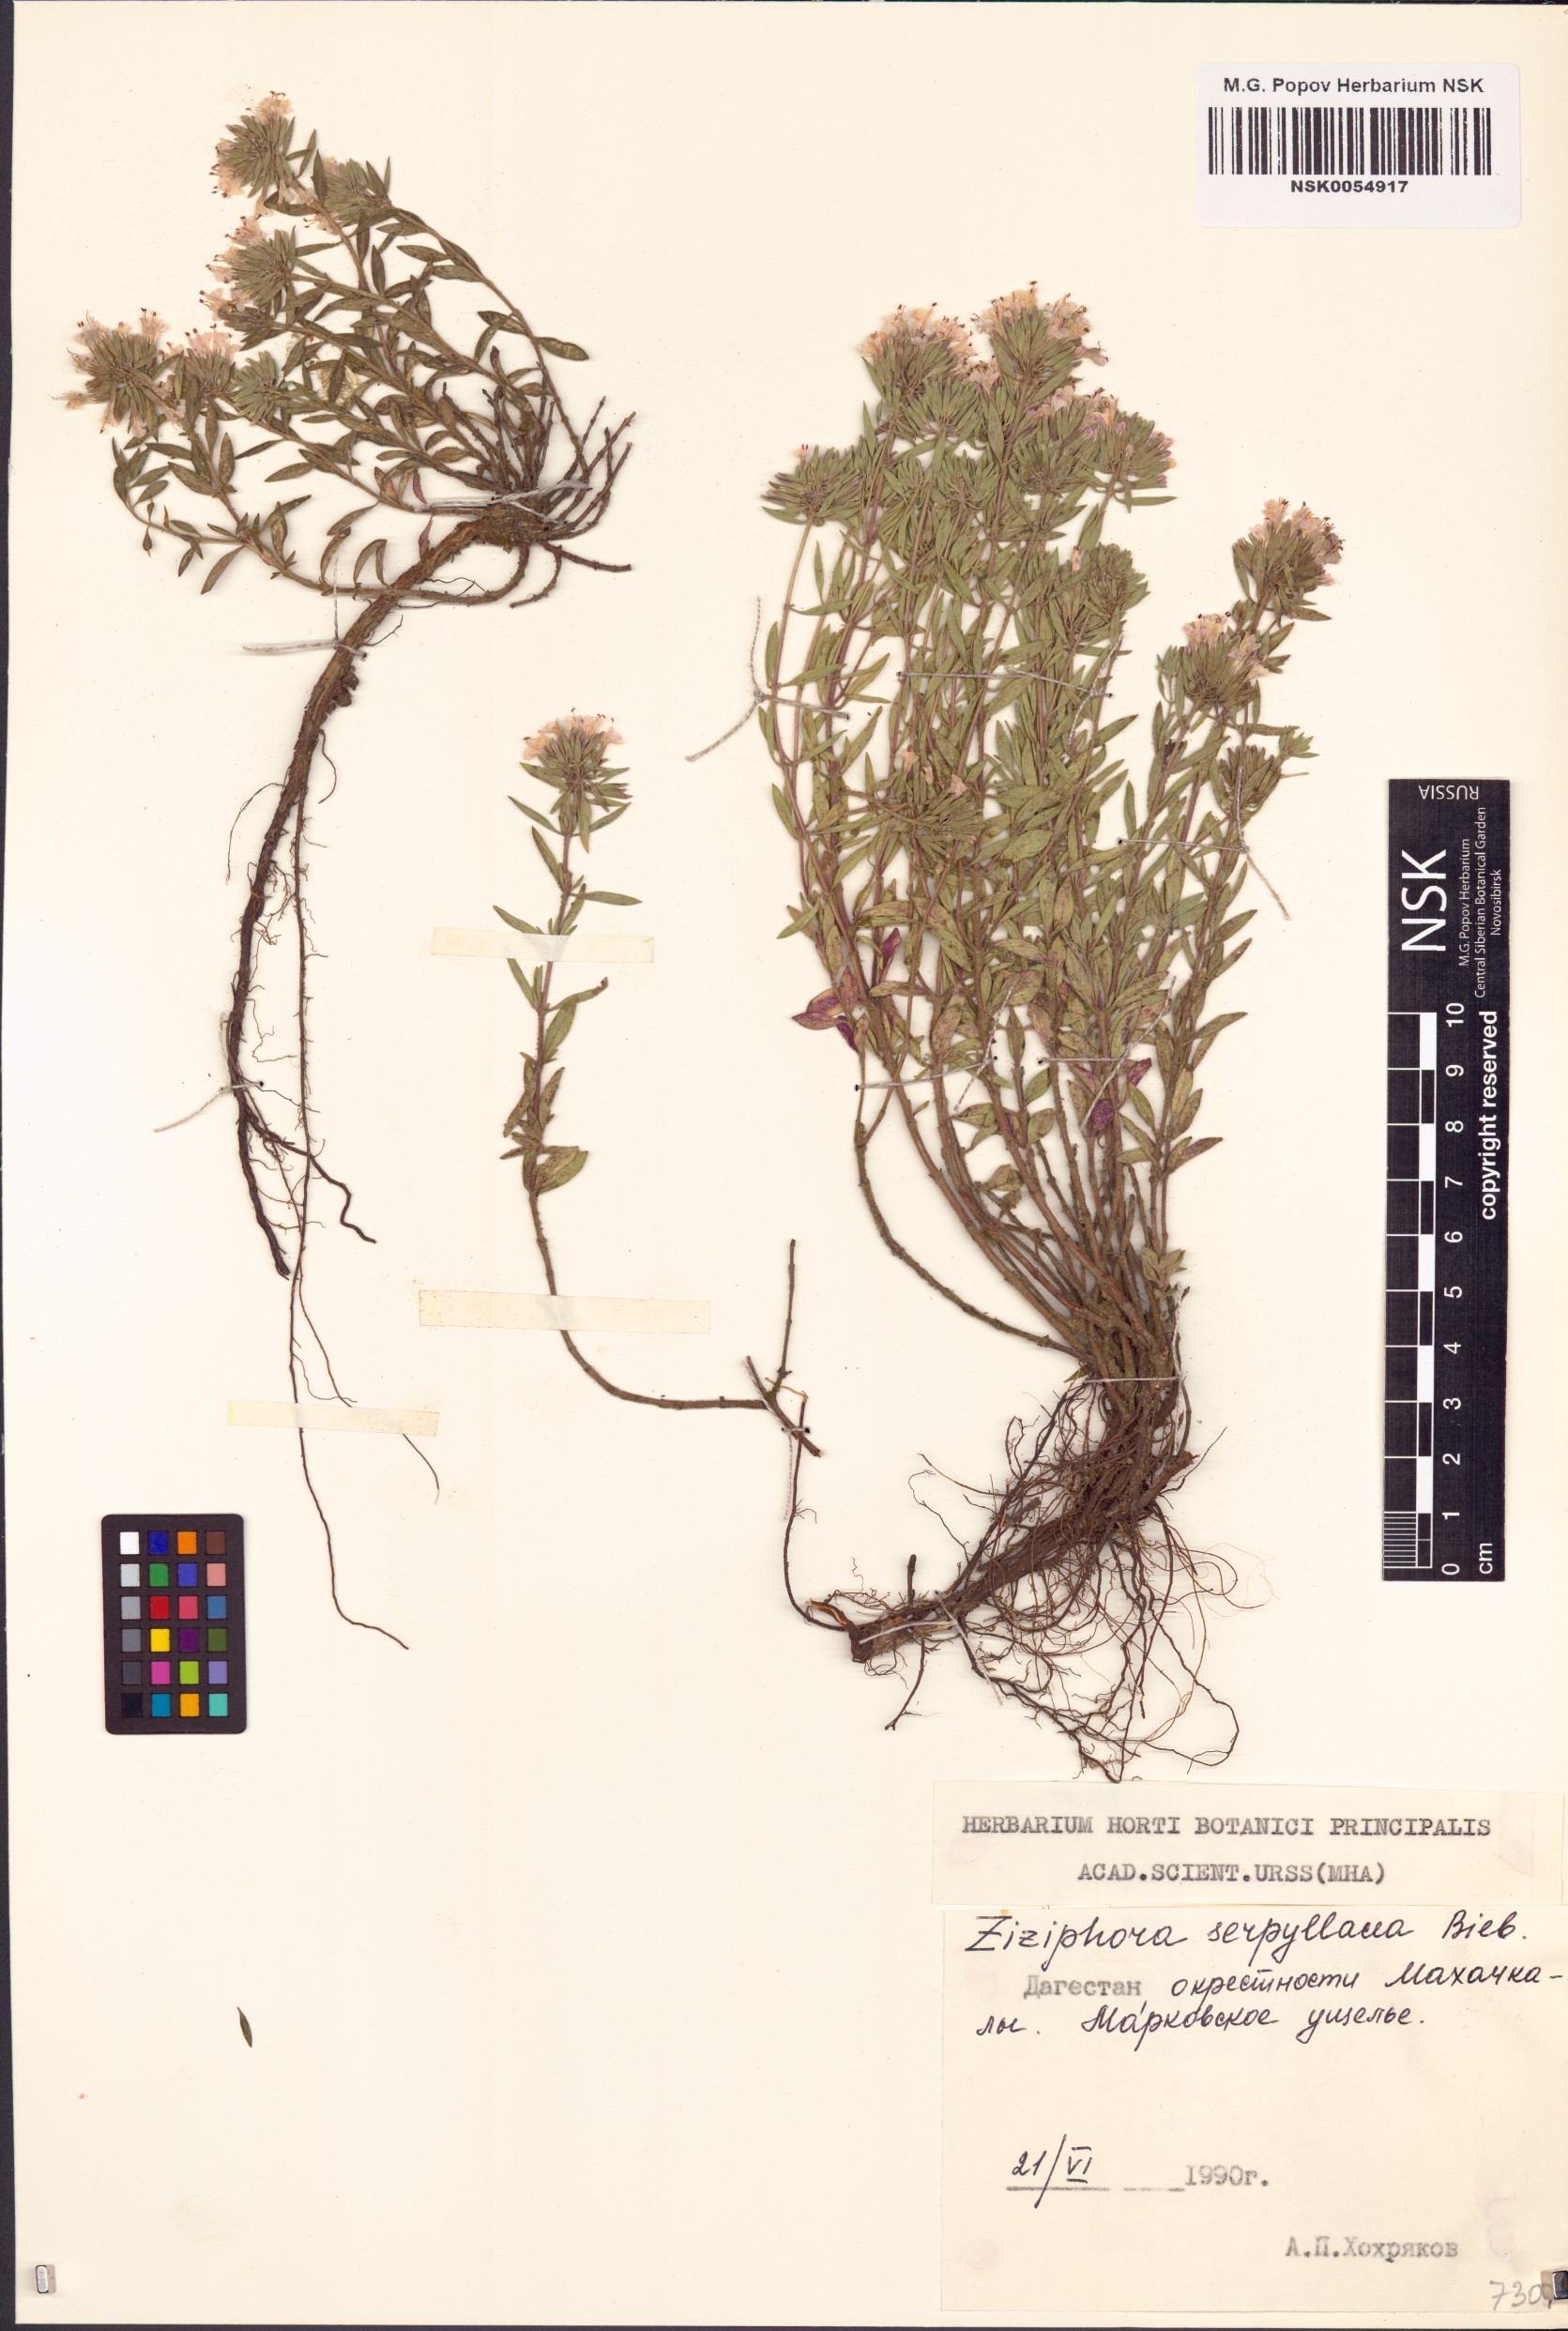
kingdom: Plantae
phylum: Tracheophyta
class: Magnoliopsida
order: Lamiales
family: Lamiaceae
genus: Ziziphora
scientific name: Ziziphora clinopodioides
